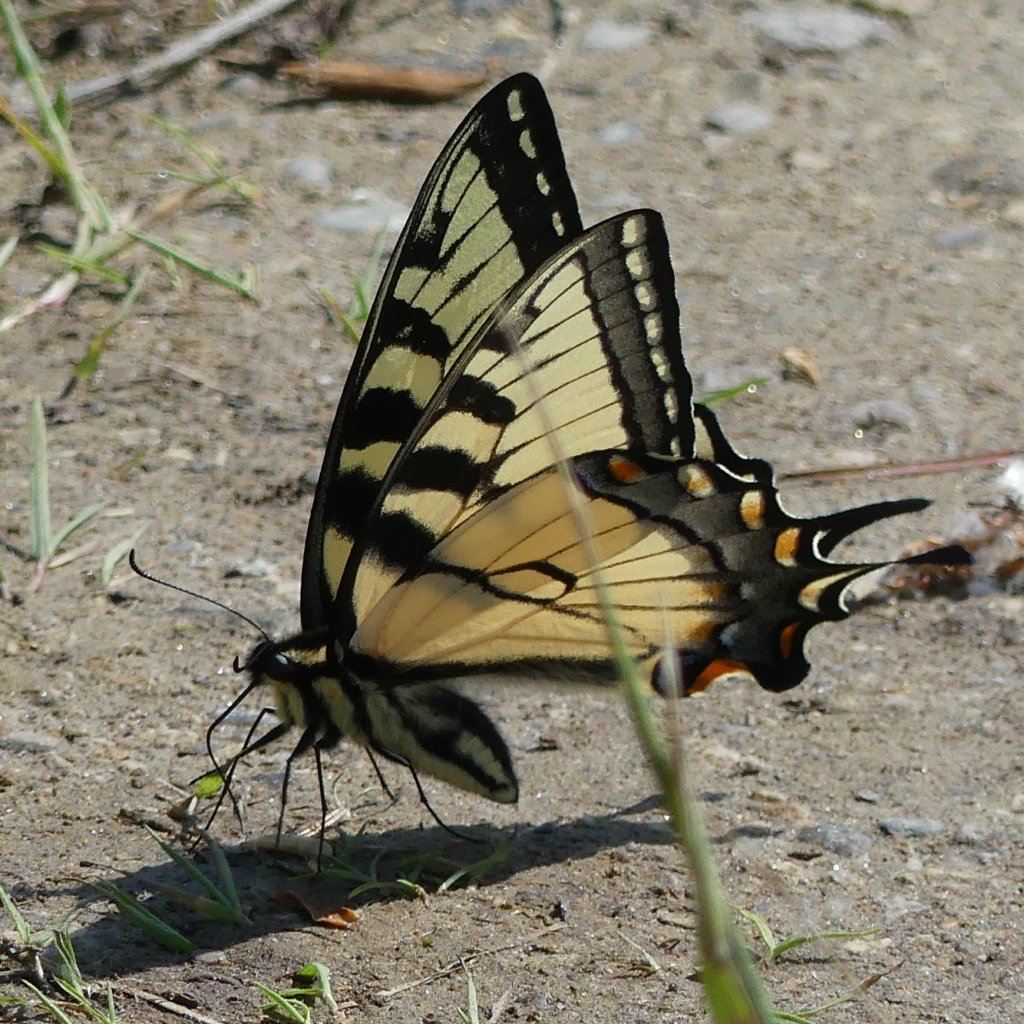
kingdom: Animalia
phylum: Arthropoda
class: Insecta
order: Lepidoptera
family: Papilionidae
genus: Pterourus
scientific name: Pterourus glaucus
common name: Eastern Tiger Swallowtail
